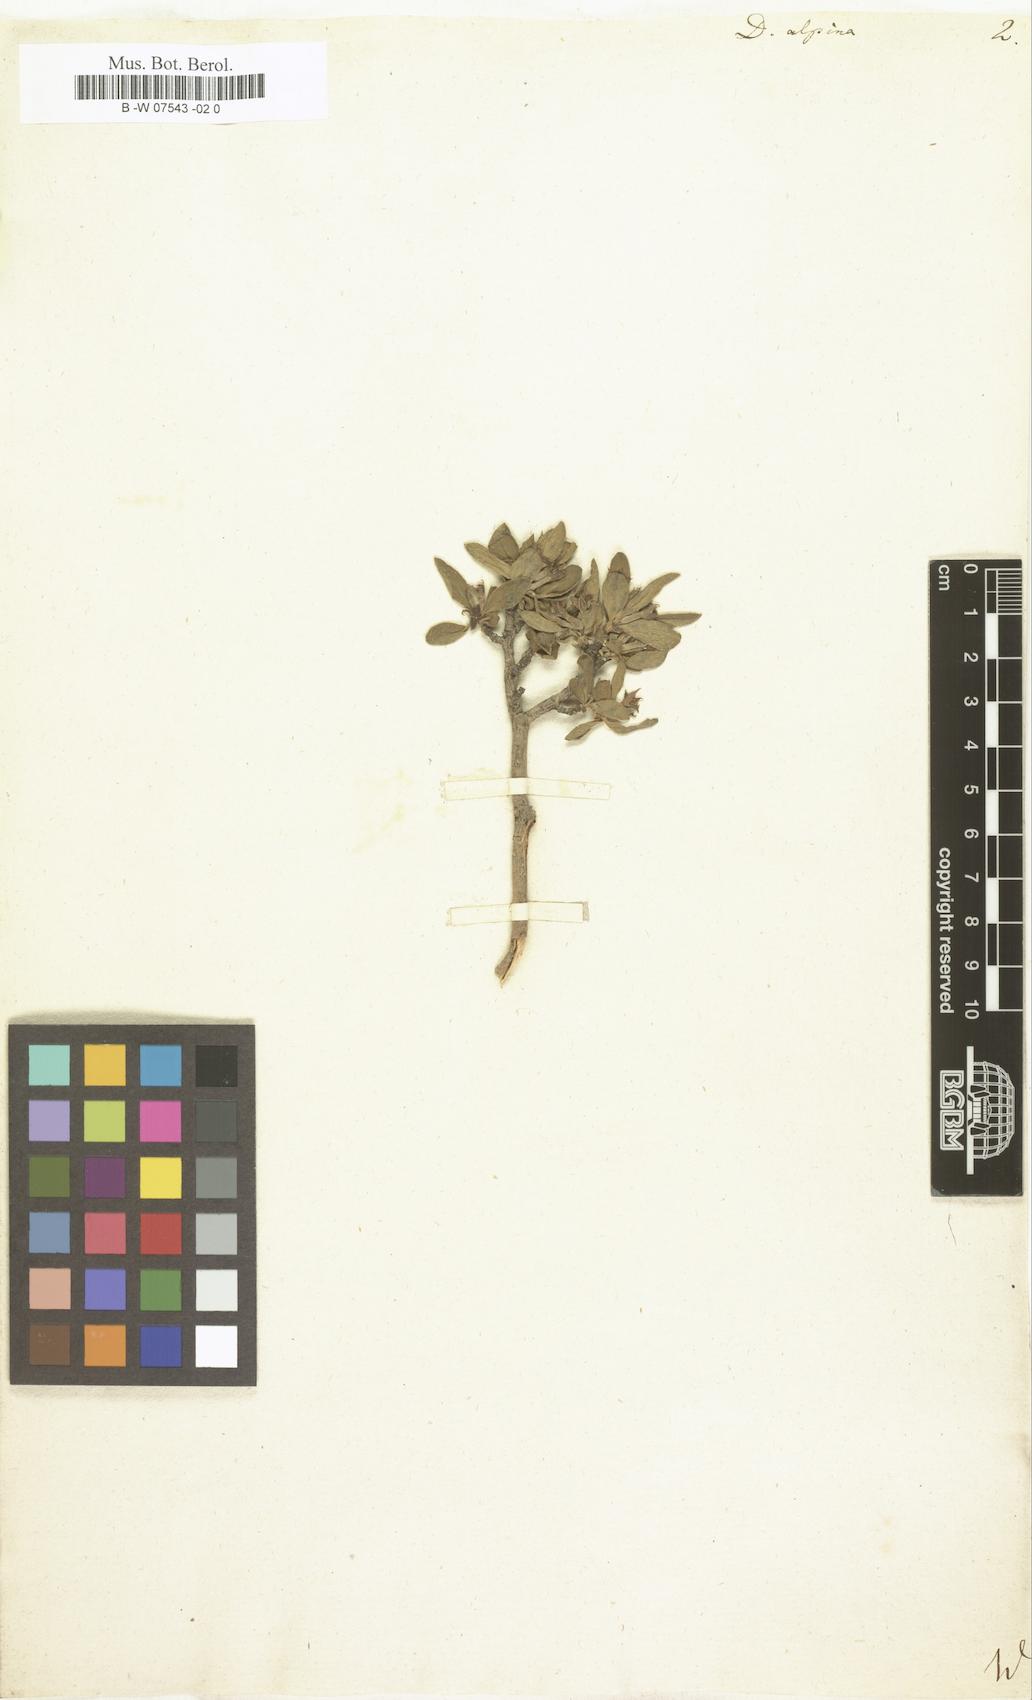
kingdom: Plantae
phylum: Tracheophyta
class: Magnoliopsida
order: Malvales
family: Thymelaeaceae
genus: Daphne
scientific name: Daphne alpina
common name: Alpine daphne
